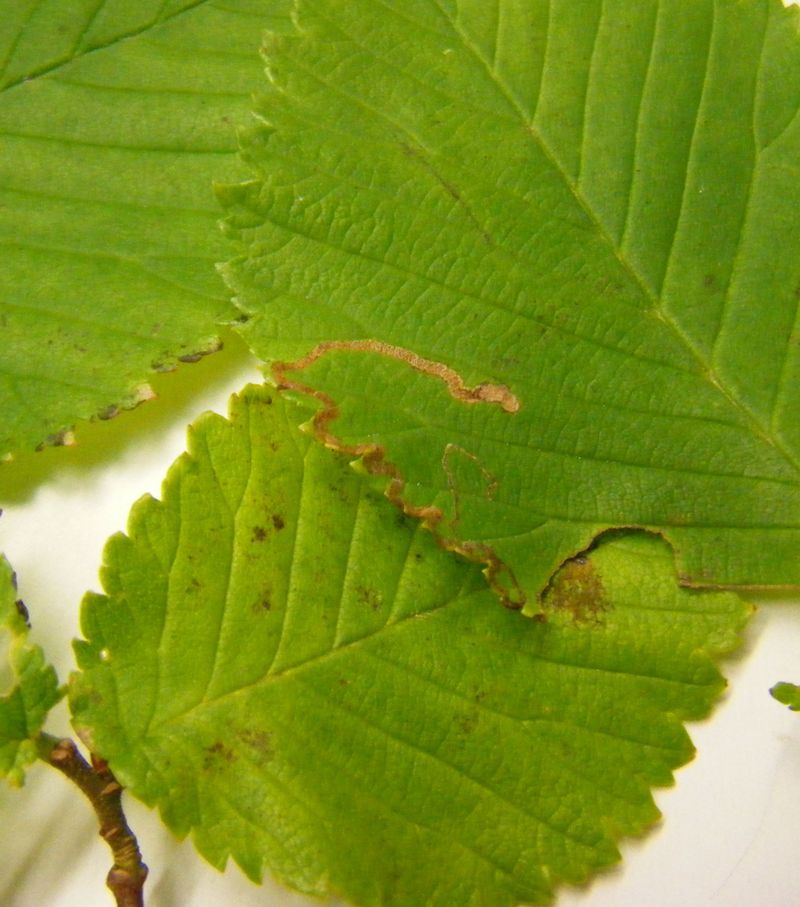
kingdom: Animalia
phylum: Arthropoda
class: Insecta
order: Lepidoptera
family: Nepticulidae
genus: Stigmella
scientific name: Stigmella lemniscella
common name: Red elm pigmy
